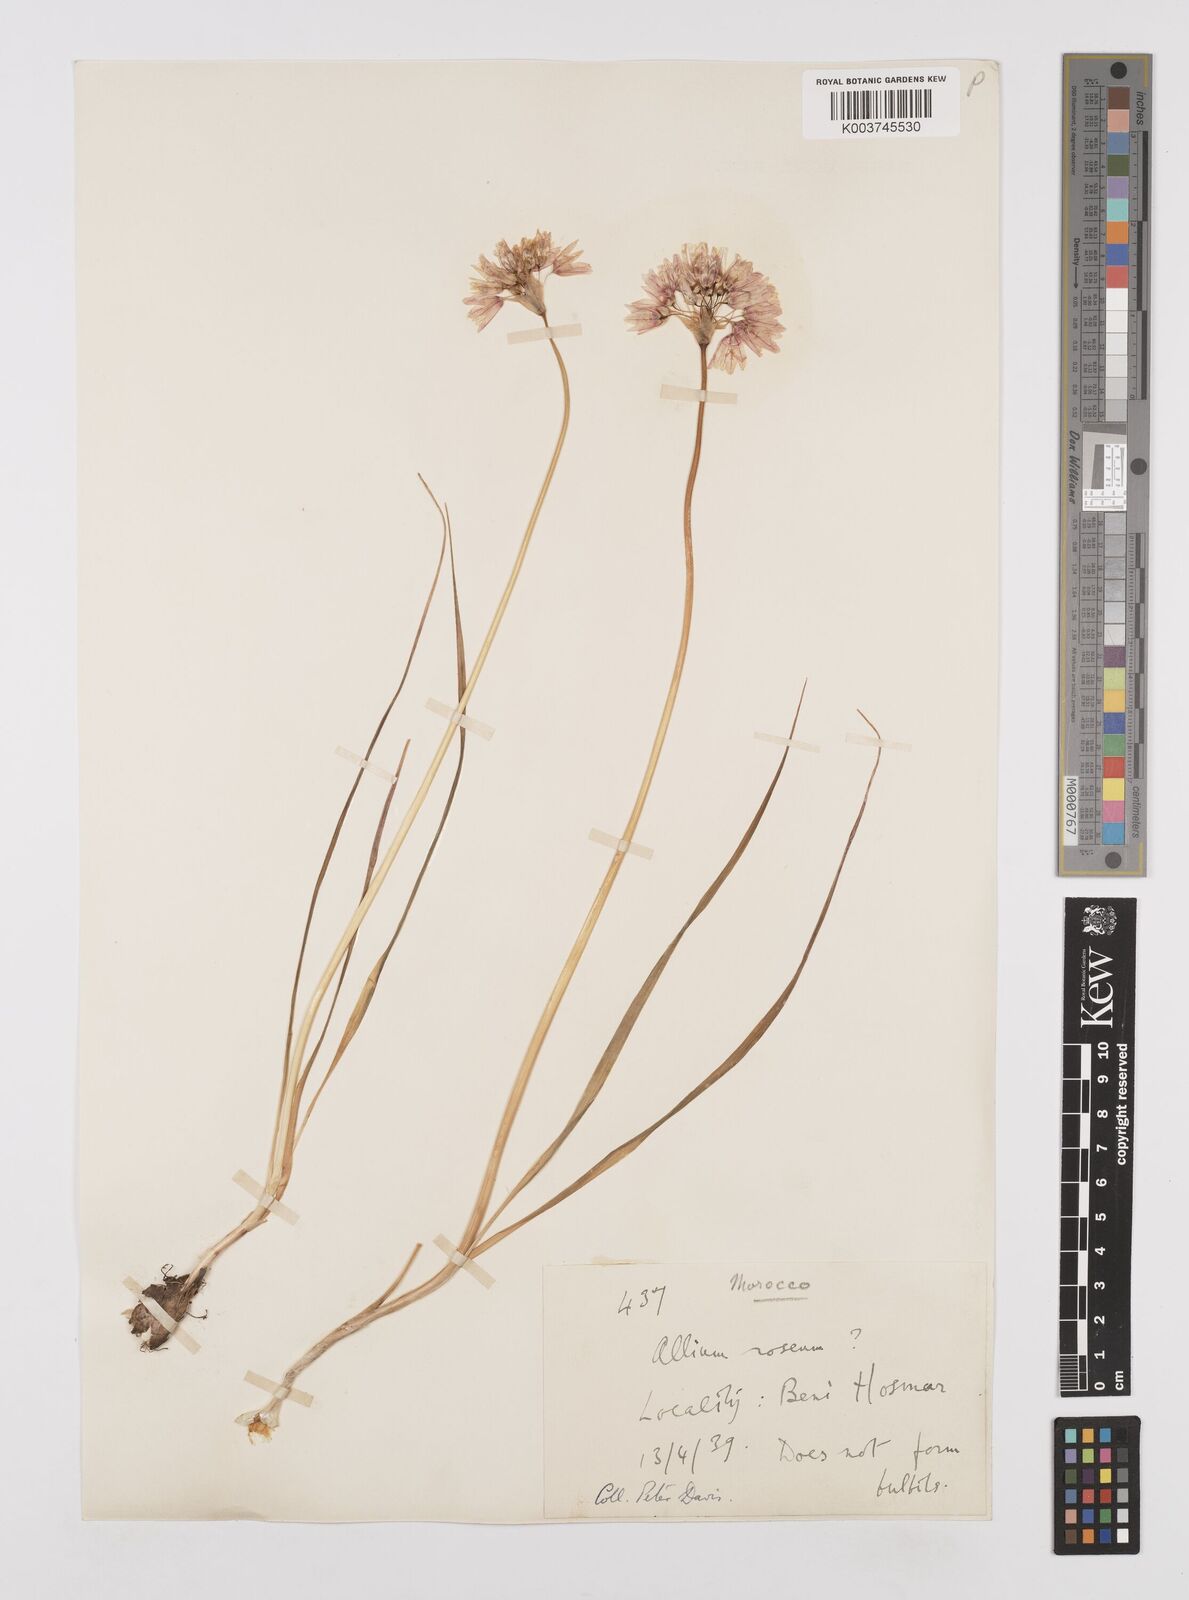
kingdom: Plantae
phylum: Tracheophyta
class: Liliopsida
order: Asparagales
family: Amaryllidaceae
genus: Allium
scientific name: Allium roseum
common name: Rosy garlic
